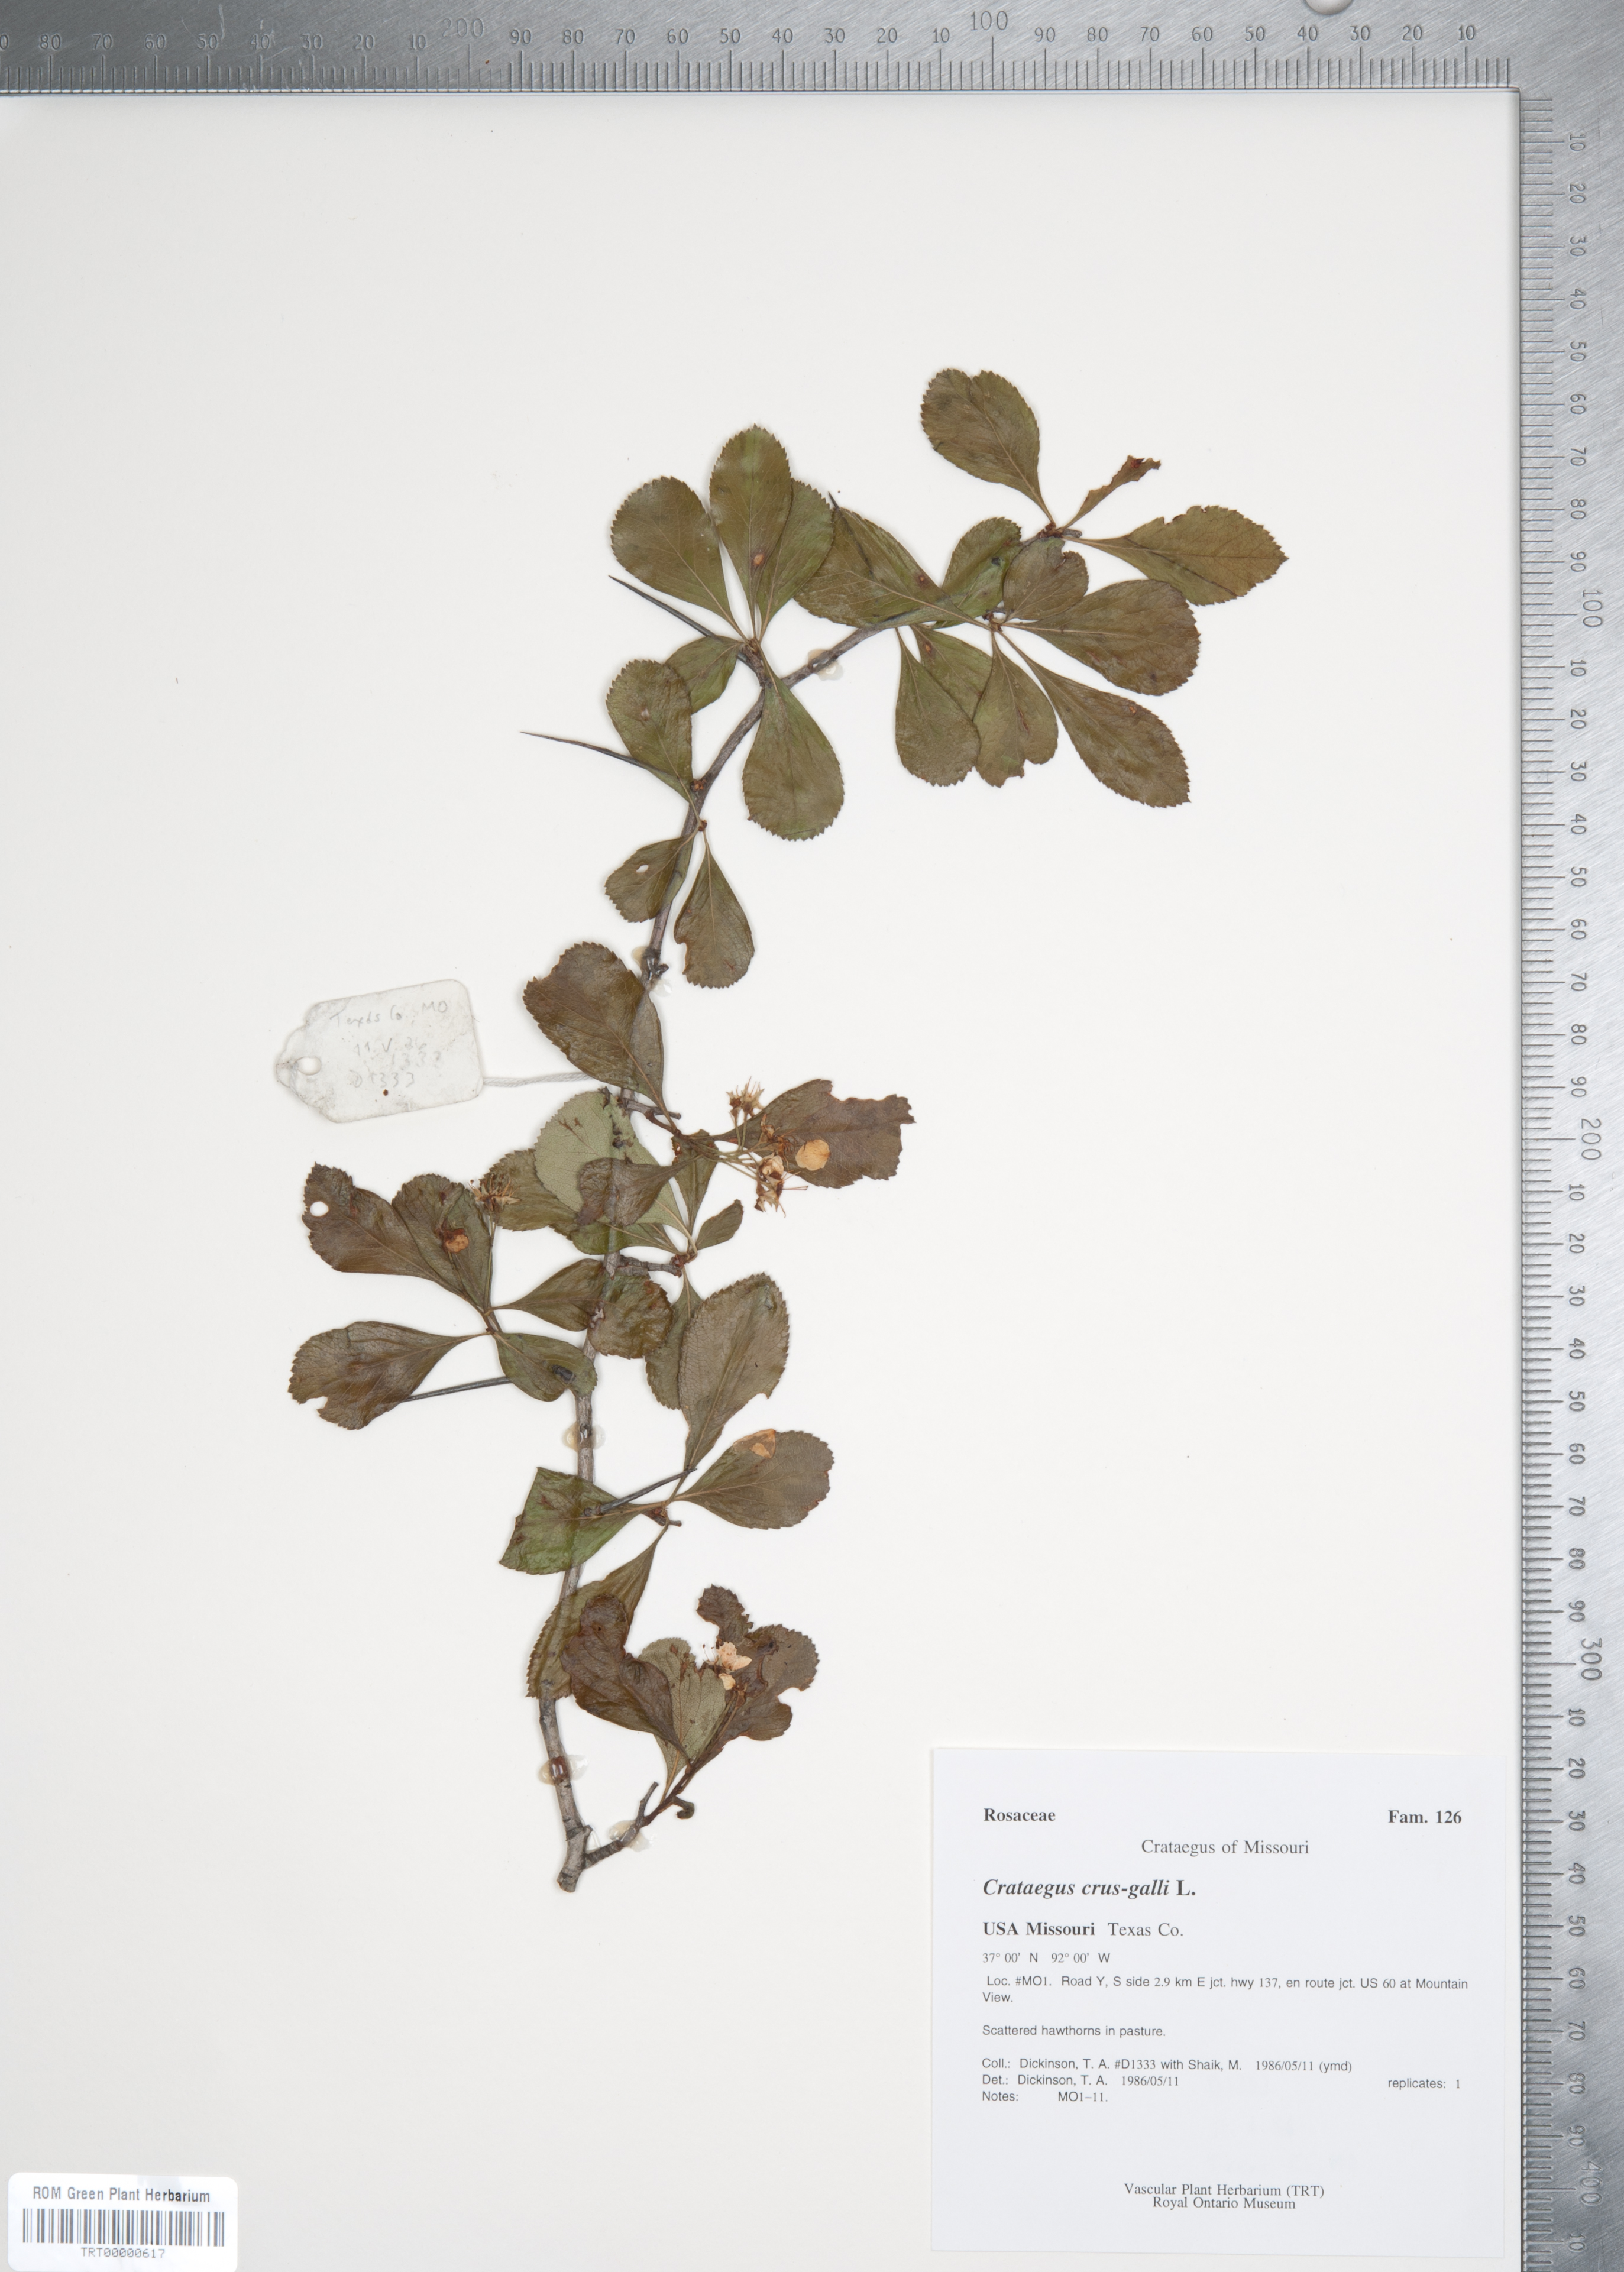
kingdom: Plantae
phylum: Tracheophyta
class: Magnoliopsida
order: Rosales
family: Rosaceae
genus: Crataegus
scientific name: Crataegus crus-galli
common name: Cockspurthorn
